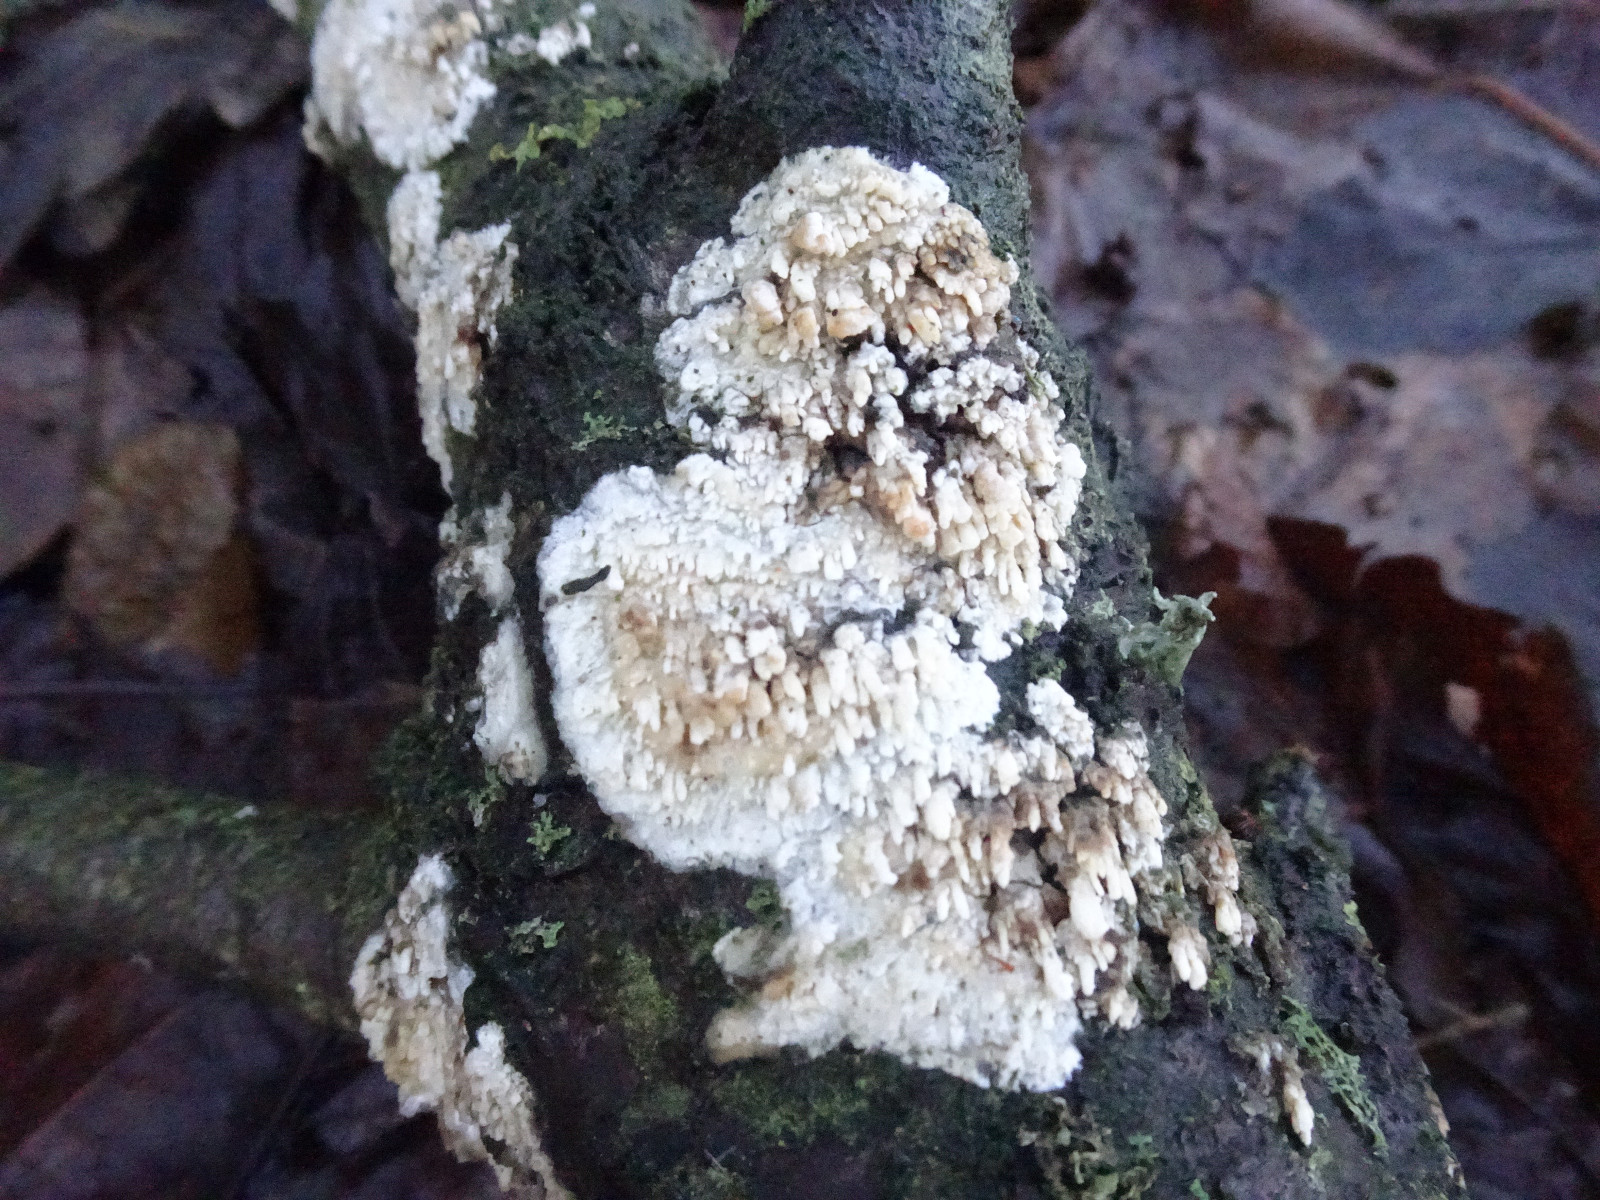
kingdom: Fungi
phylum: Basidiomycota
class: Agaricomycetes
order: Hymenochaetales
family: Schizoporaceae
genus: Xylodon
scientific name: Xylodon radula
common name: grovtandet kalkskind
